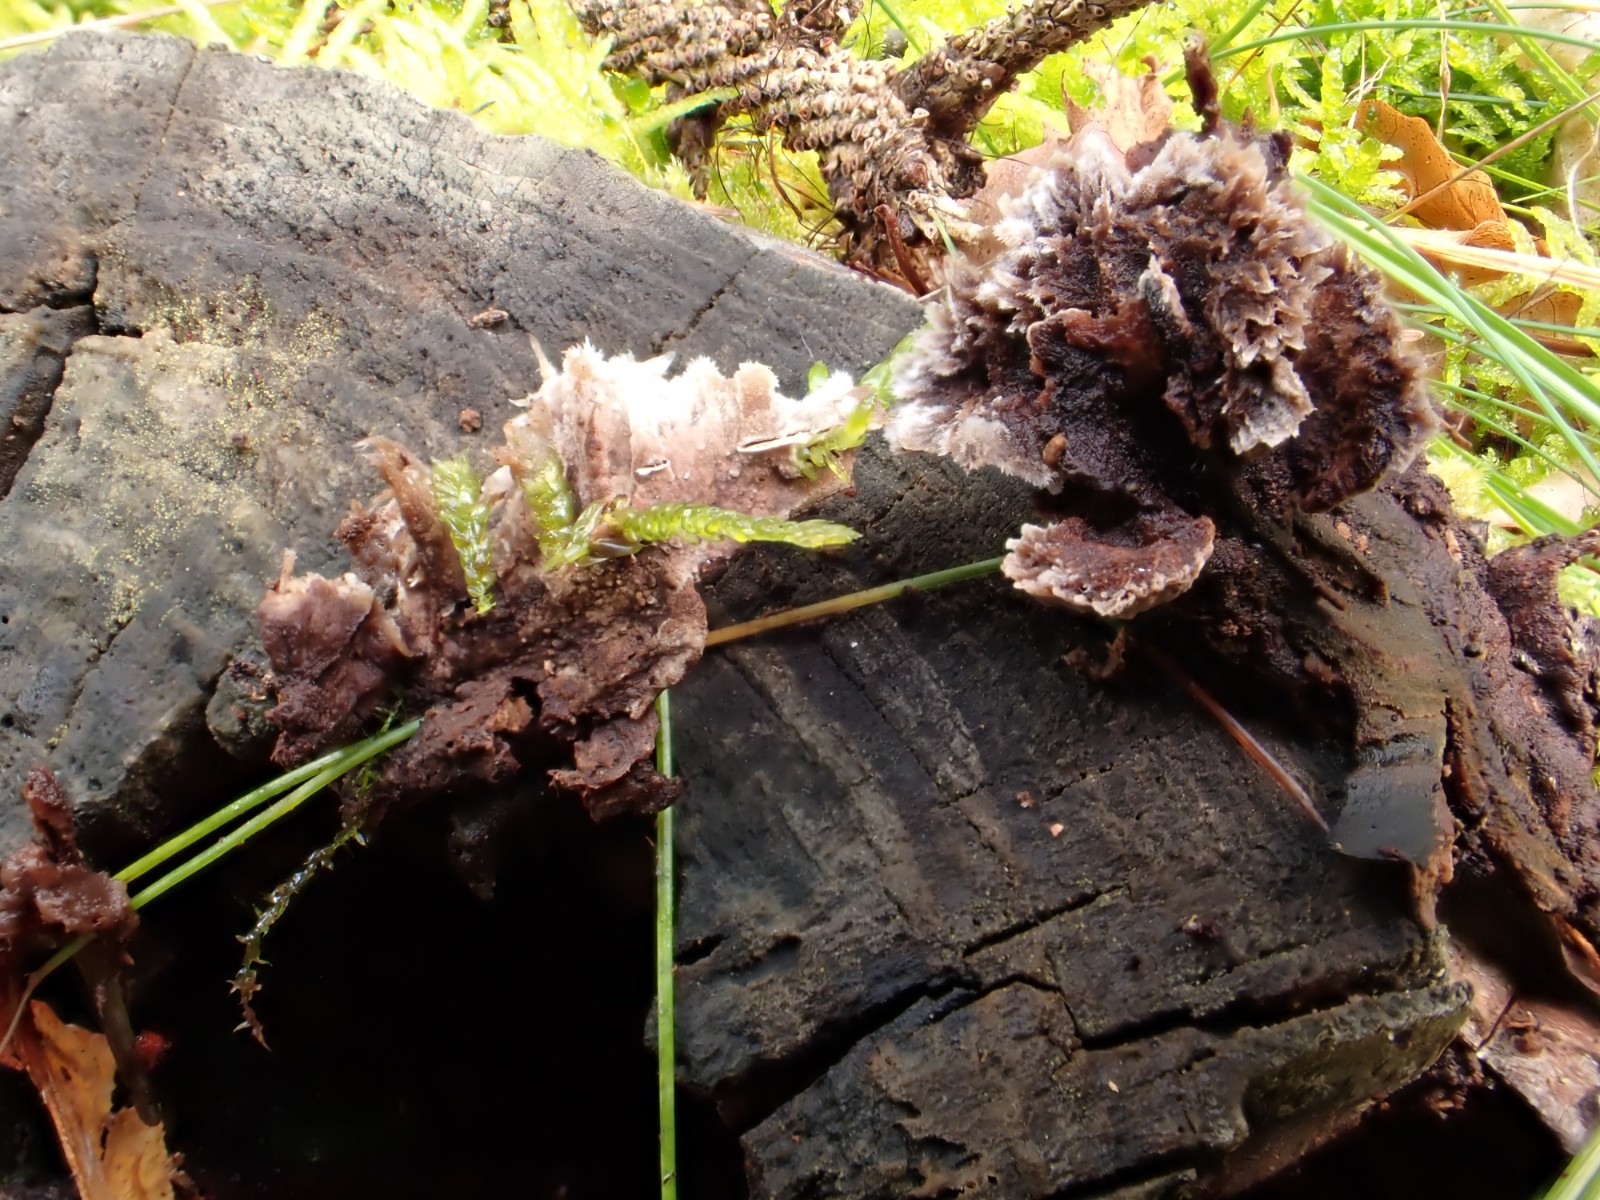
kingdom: Fungi
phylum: Basidiomycota
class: Agaricomycetes
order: Thelephorales
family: Thelephoraceae
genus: Thelephora
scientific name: Thelephora terrestris
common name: fliget frynsesvamp
